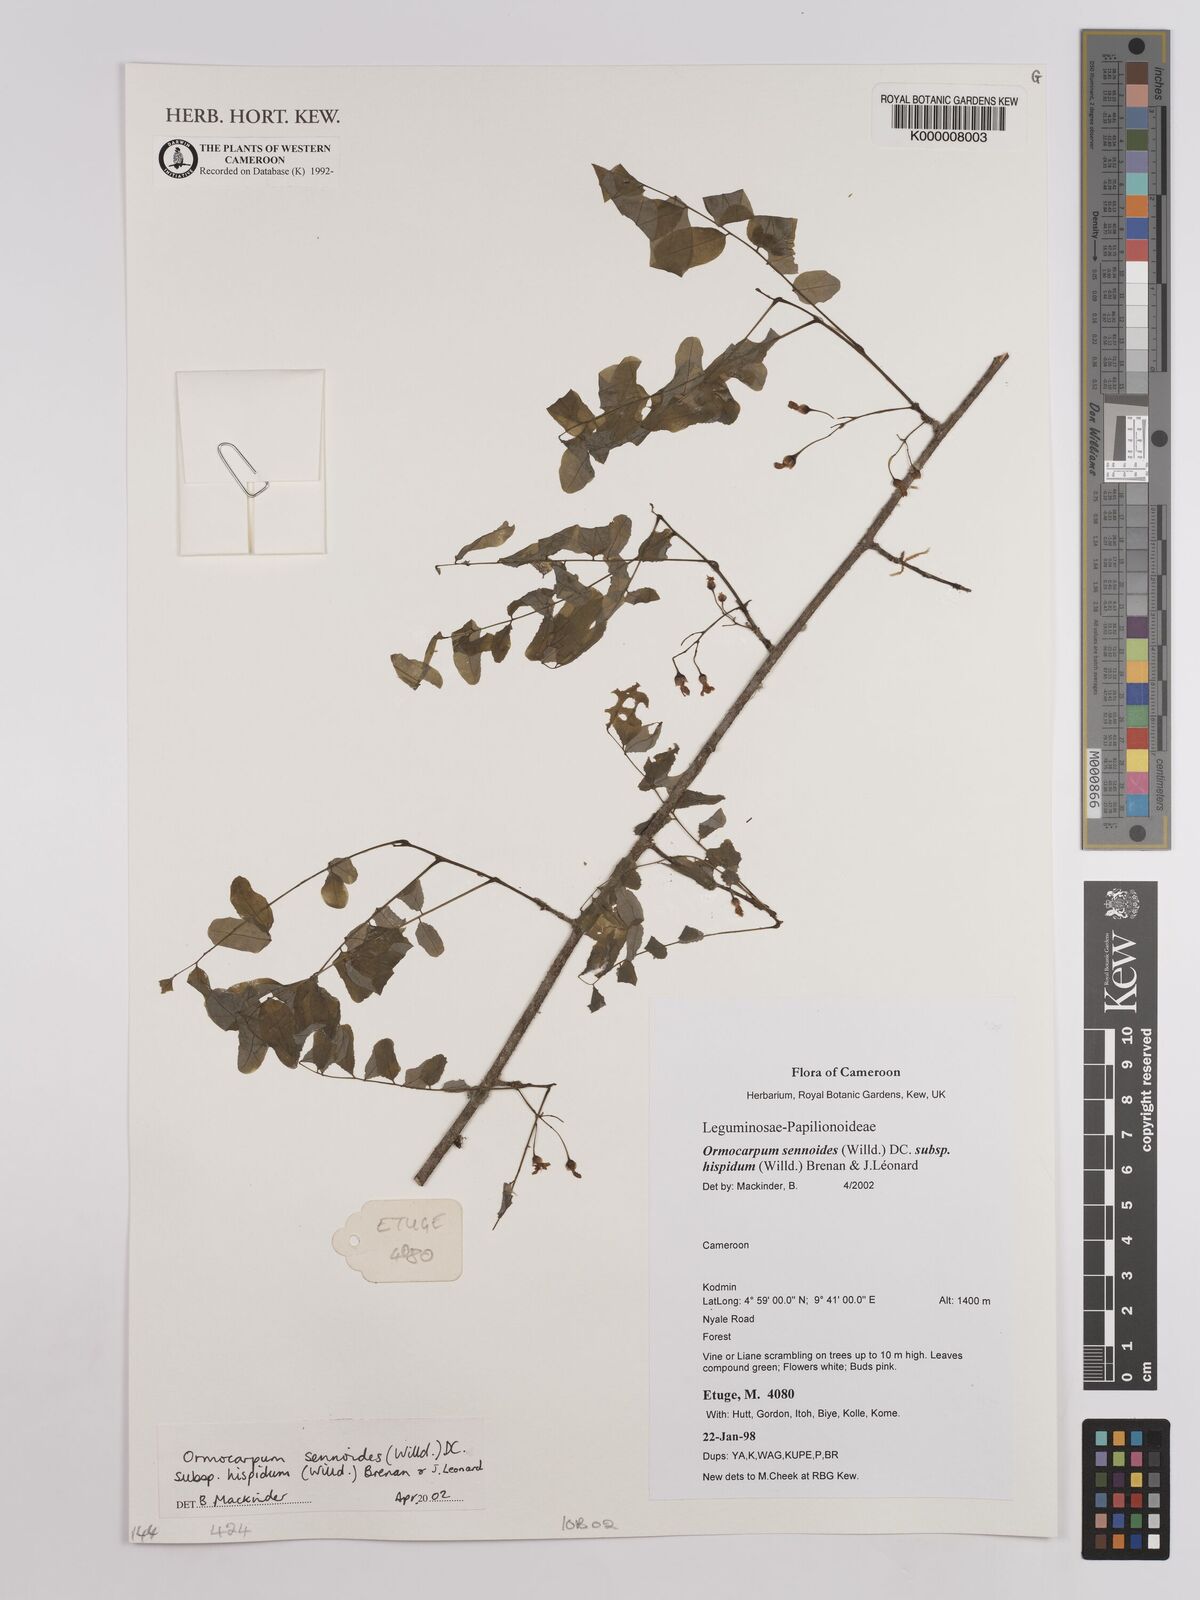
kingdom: Plantae
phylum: Tracheophyta
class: Magnoliopsida
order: Fabales
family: Fabaceae
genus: Ormocarpum
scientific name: Ormocarpum sennoides
